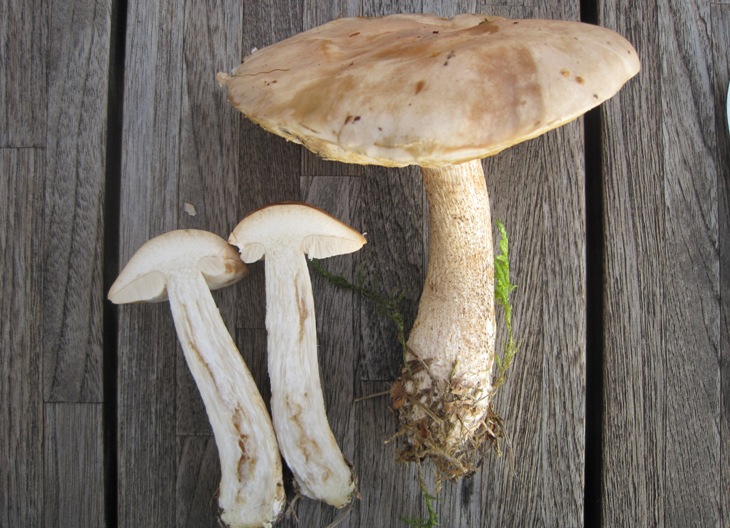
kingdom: Fungi
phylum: Basidiomycota
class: Agaricomycetes
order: Boletales
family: Boletaceae
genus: Leccinum
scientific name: Leccinum schistophilum
